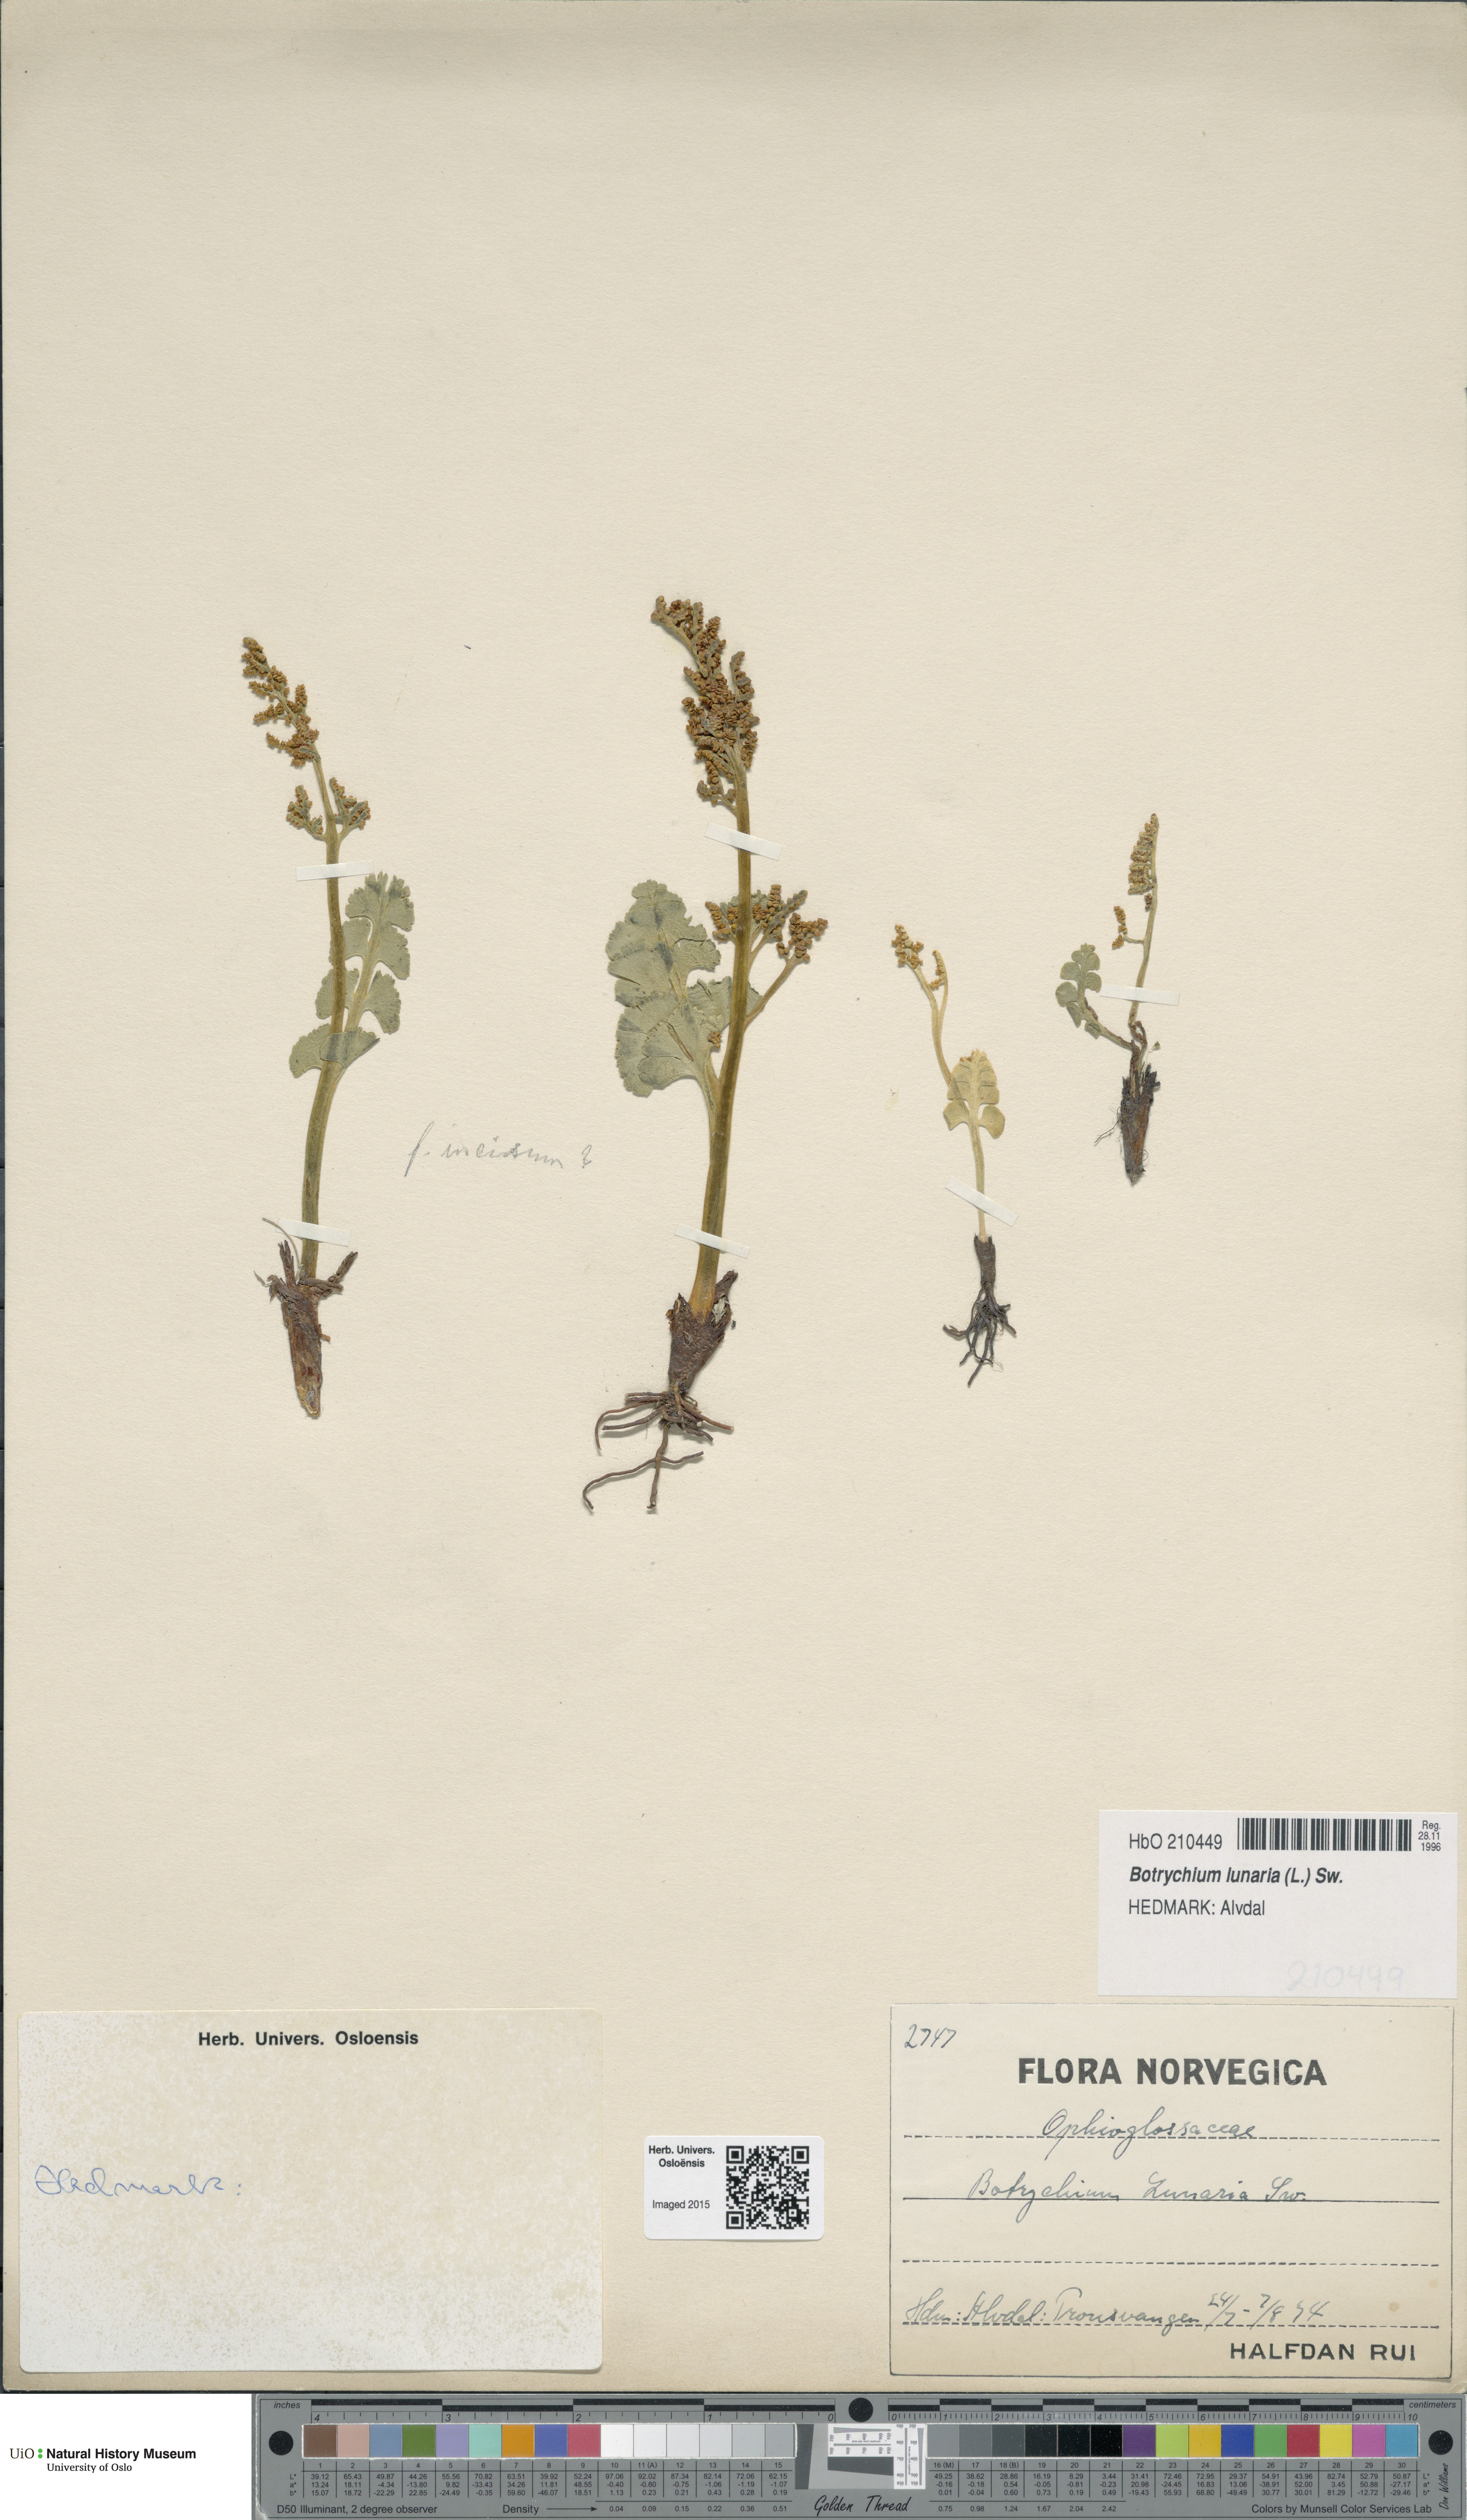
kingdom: Plantae
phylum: Tracheophyta
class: Polypodiopsida
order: Ophioglossales
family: Ophioglossaceae
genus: Botrychium
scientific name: Botrychium lunaria
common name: Moonwort
